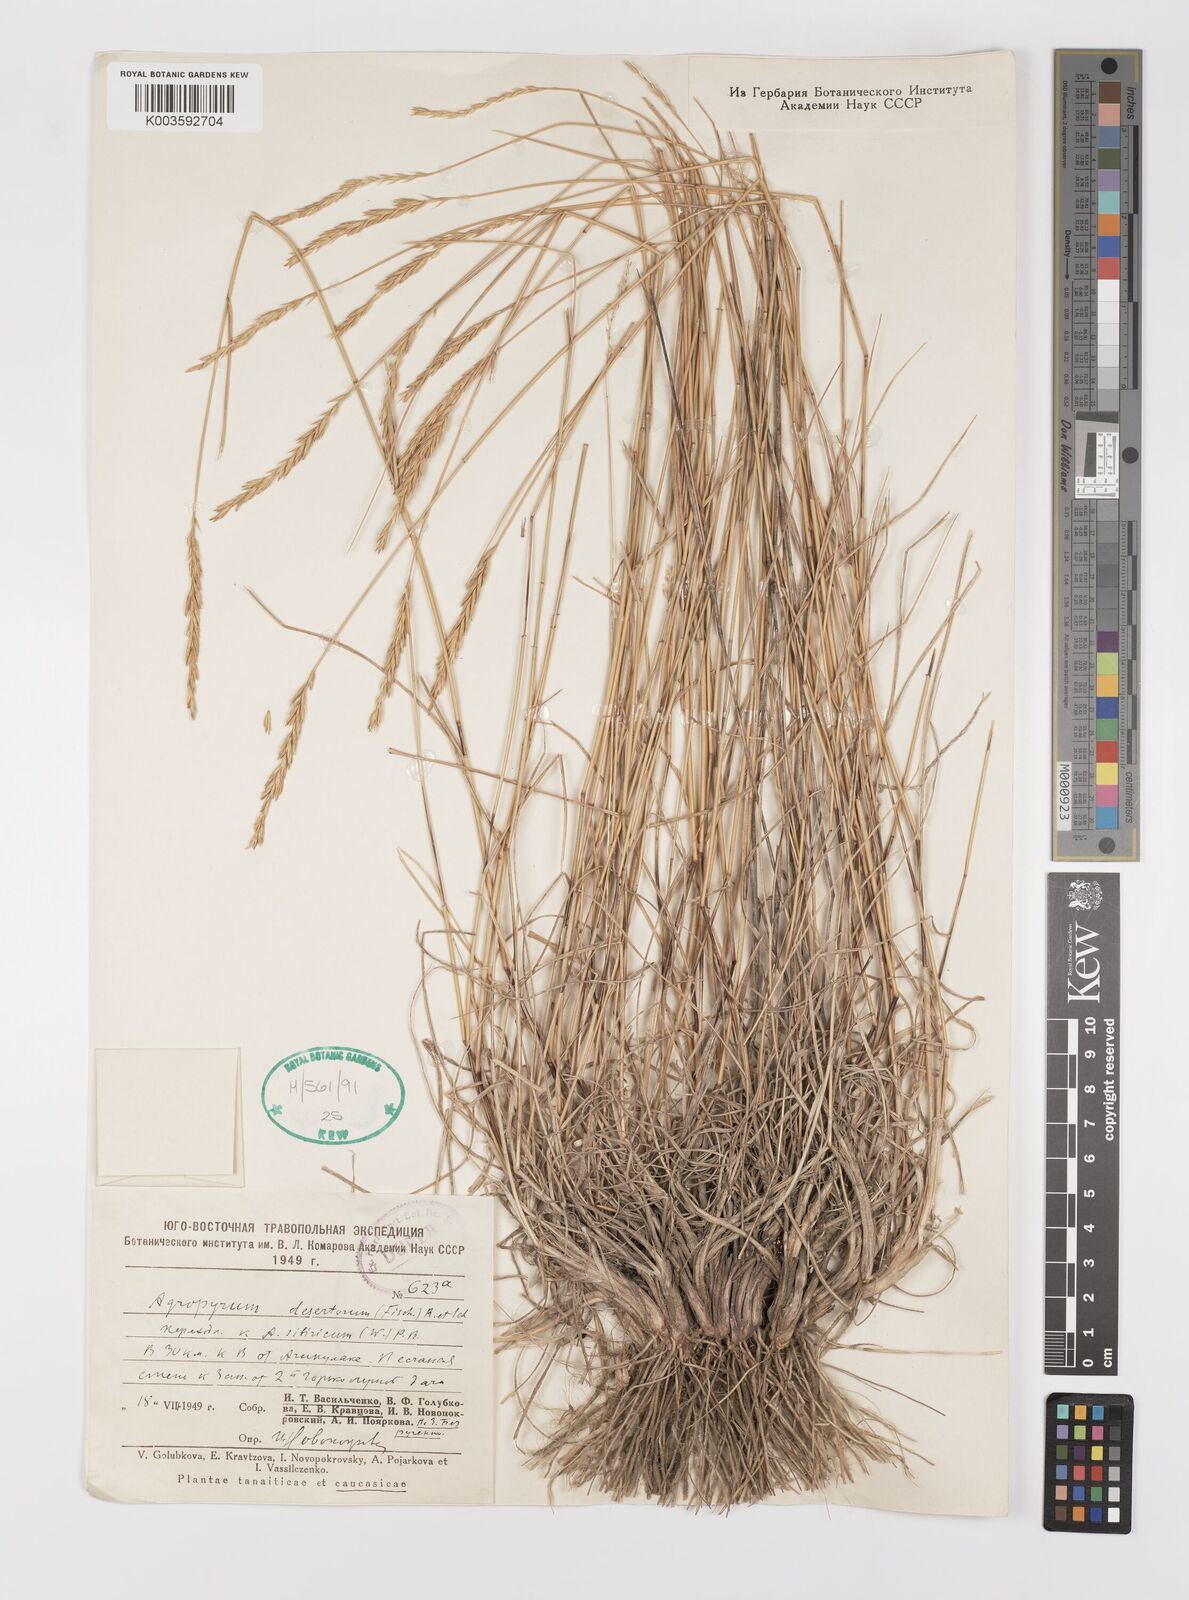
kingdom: Plantae
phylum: Tracheophyta
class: Liliopsida
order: Poales
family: Poaceae
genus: Agropyron
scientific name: Agropyron fragile
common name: Siberian wheatgrass
